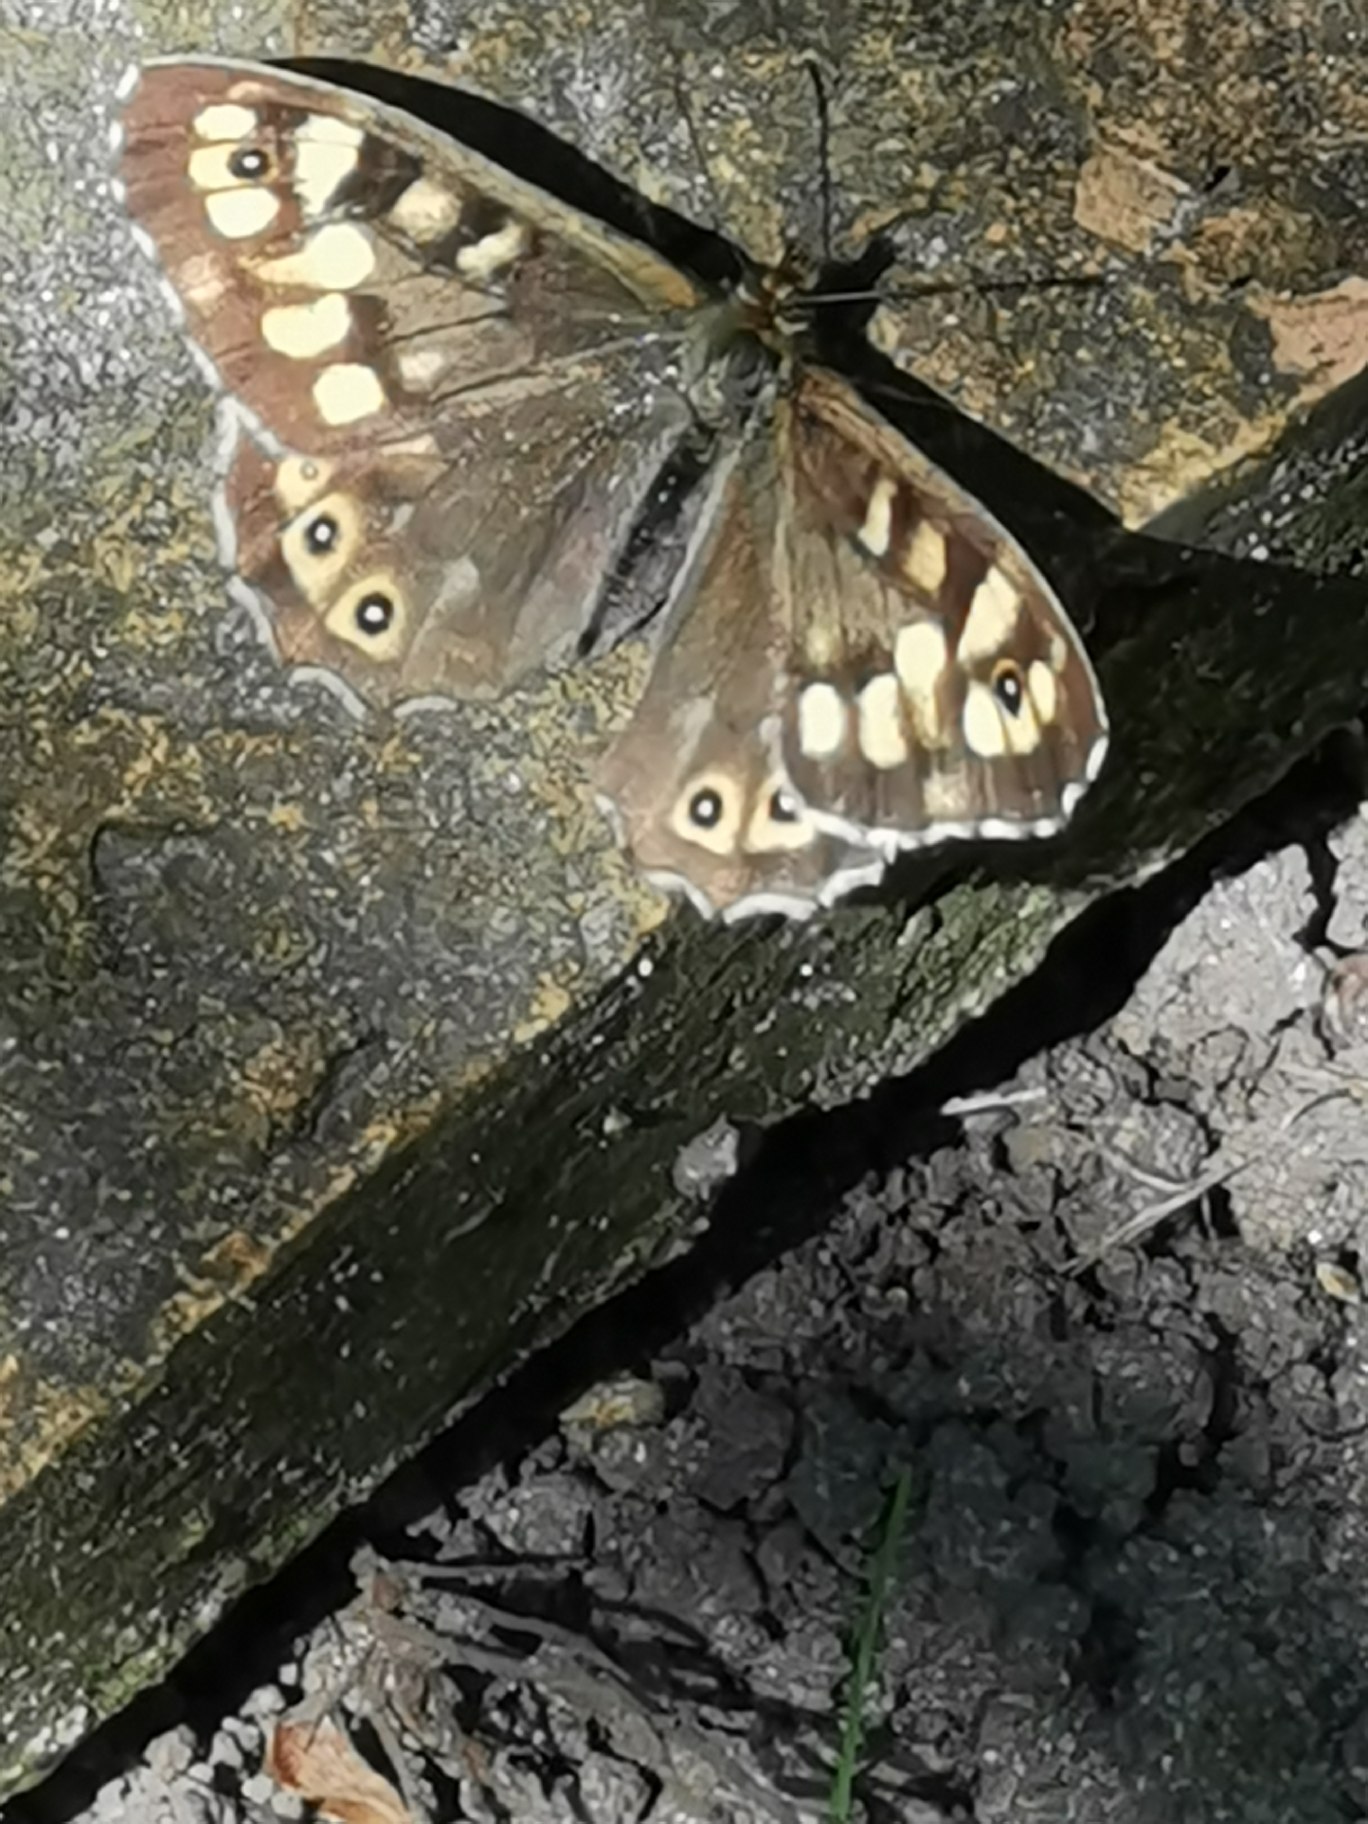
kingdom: Animalia
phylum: Arthropoda
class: Insecta
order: Lepidoptera
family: Nymphalidae
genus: Pararge
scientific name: Pararge aegeria
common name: Skovrandøje
